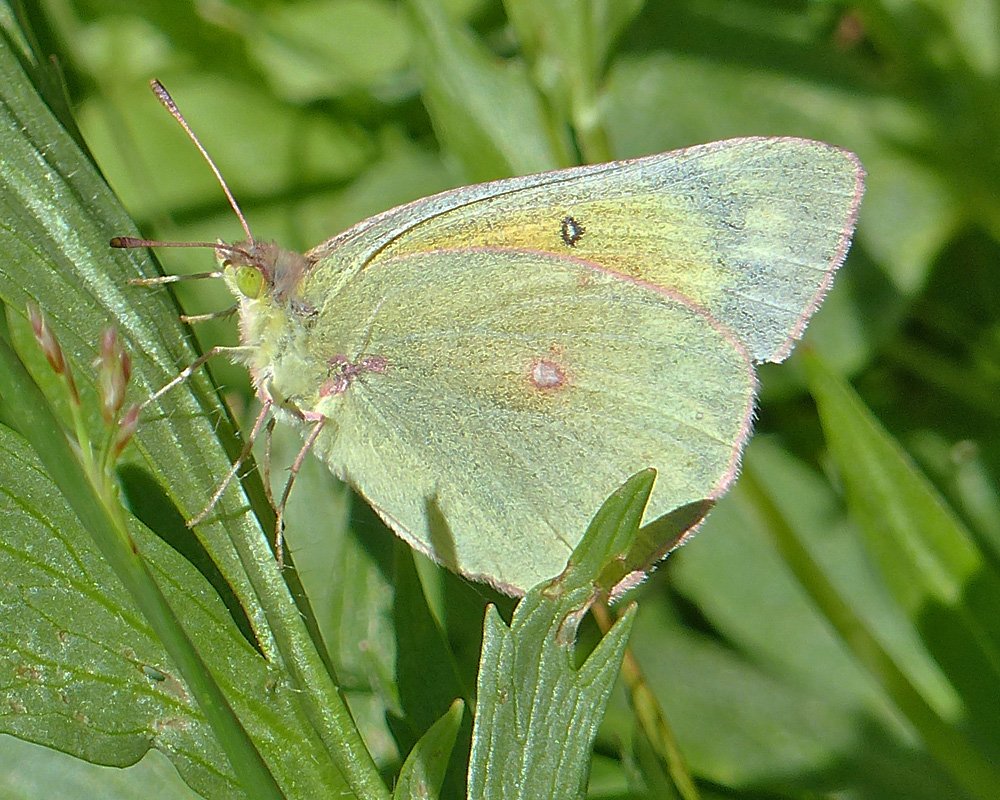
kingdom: Animalia
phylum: Arthropoda
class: Insecta
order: Lepidoptera
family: Pieridae
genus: Colias
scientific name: Colias eurytheme
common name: Orange Sulphur
